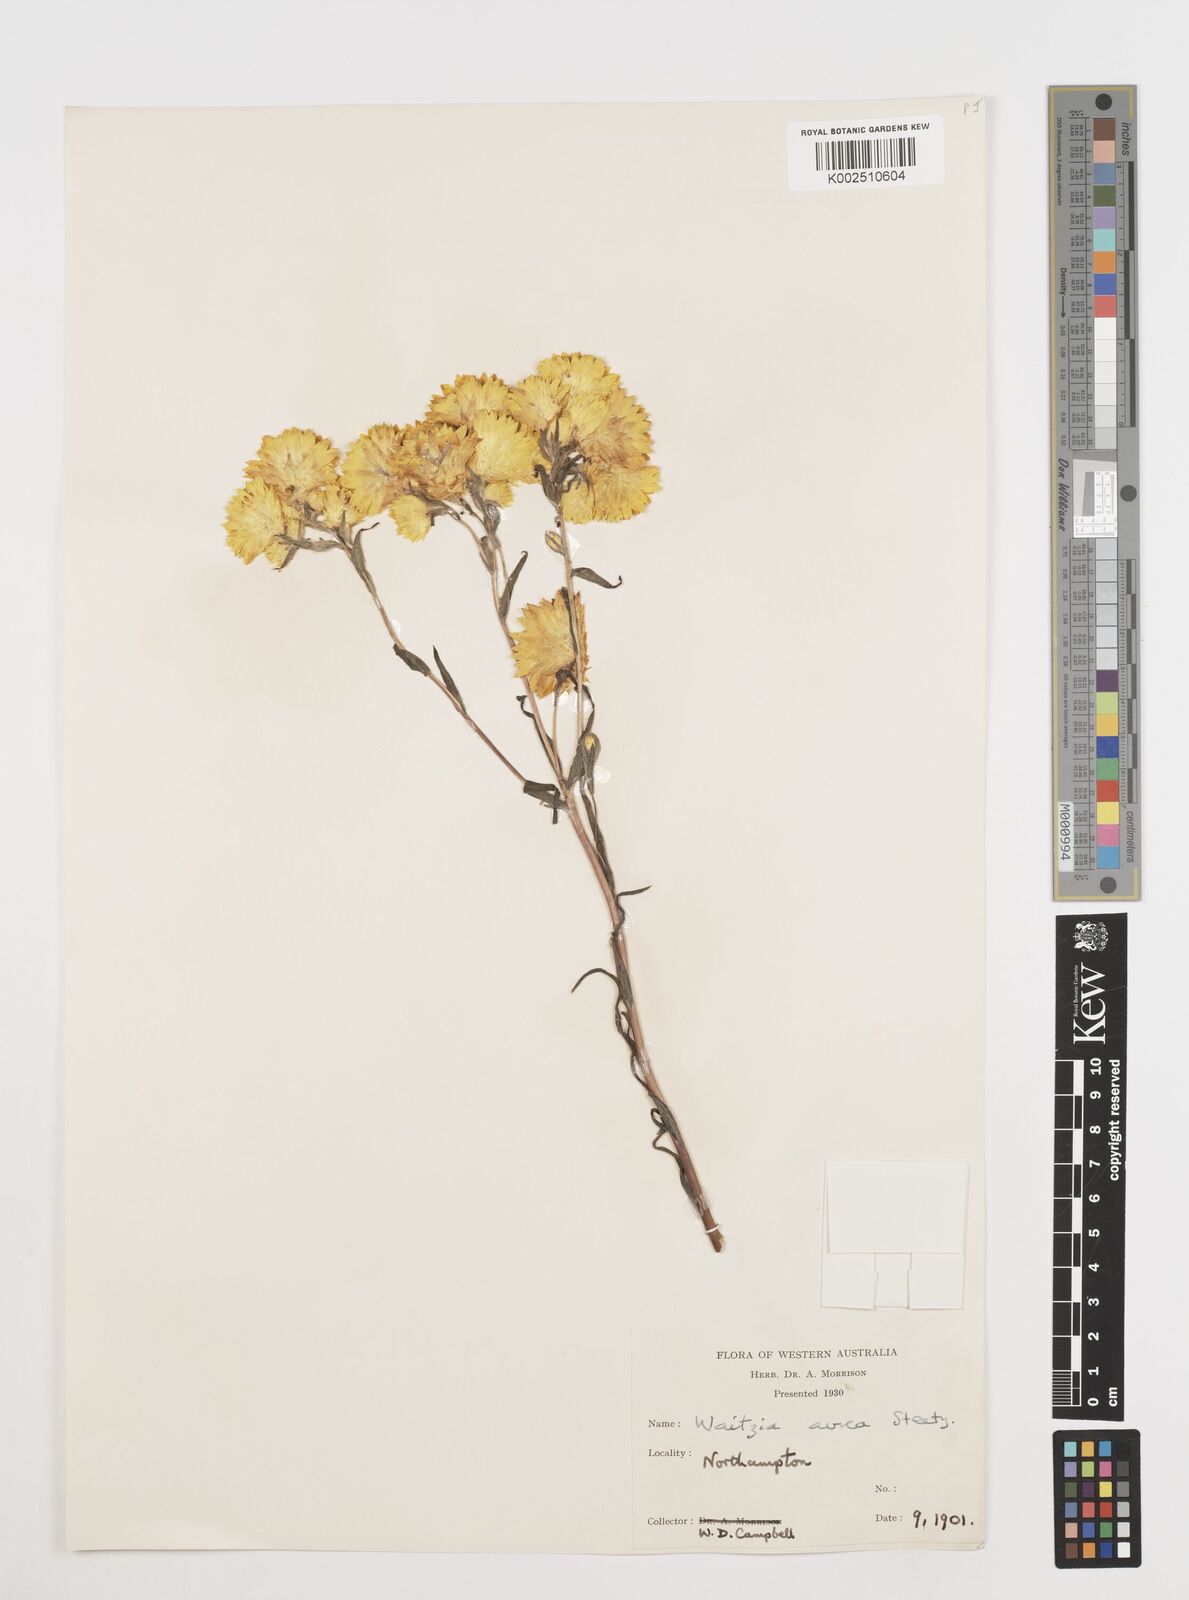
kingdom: Plantae
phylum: Tracheophyta
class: Magnoliopsida
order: Asterales
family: Asteraceae
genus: Waitzia
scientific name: Waitzia nitida
